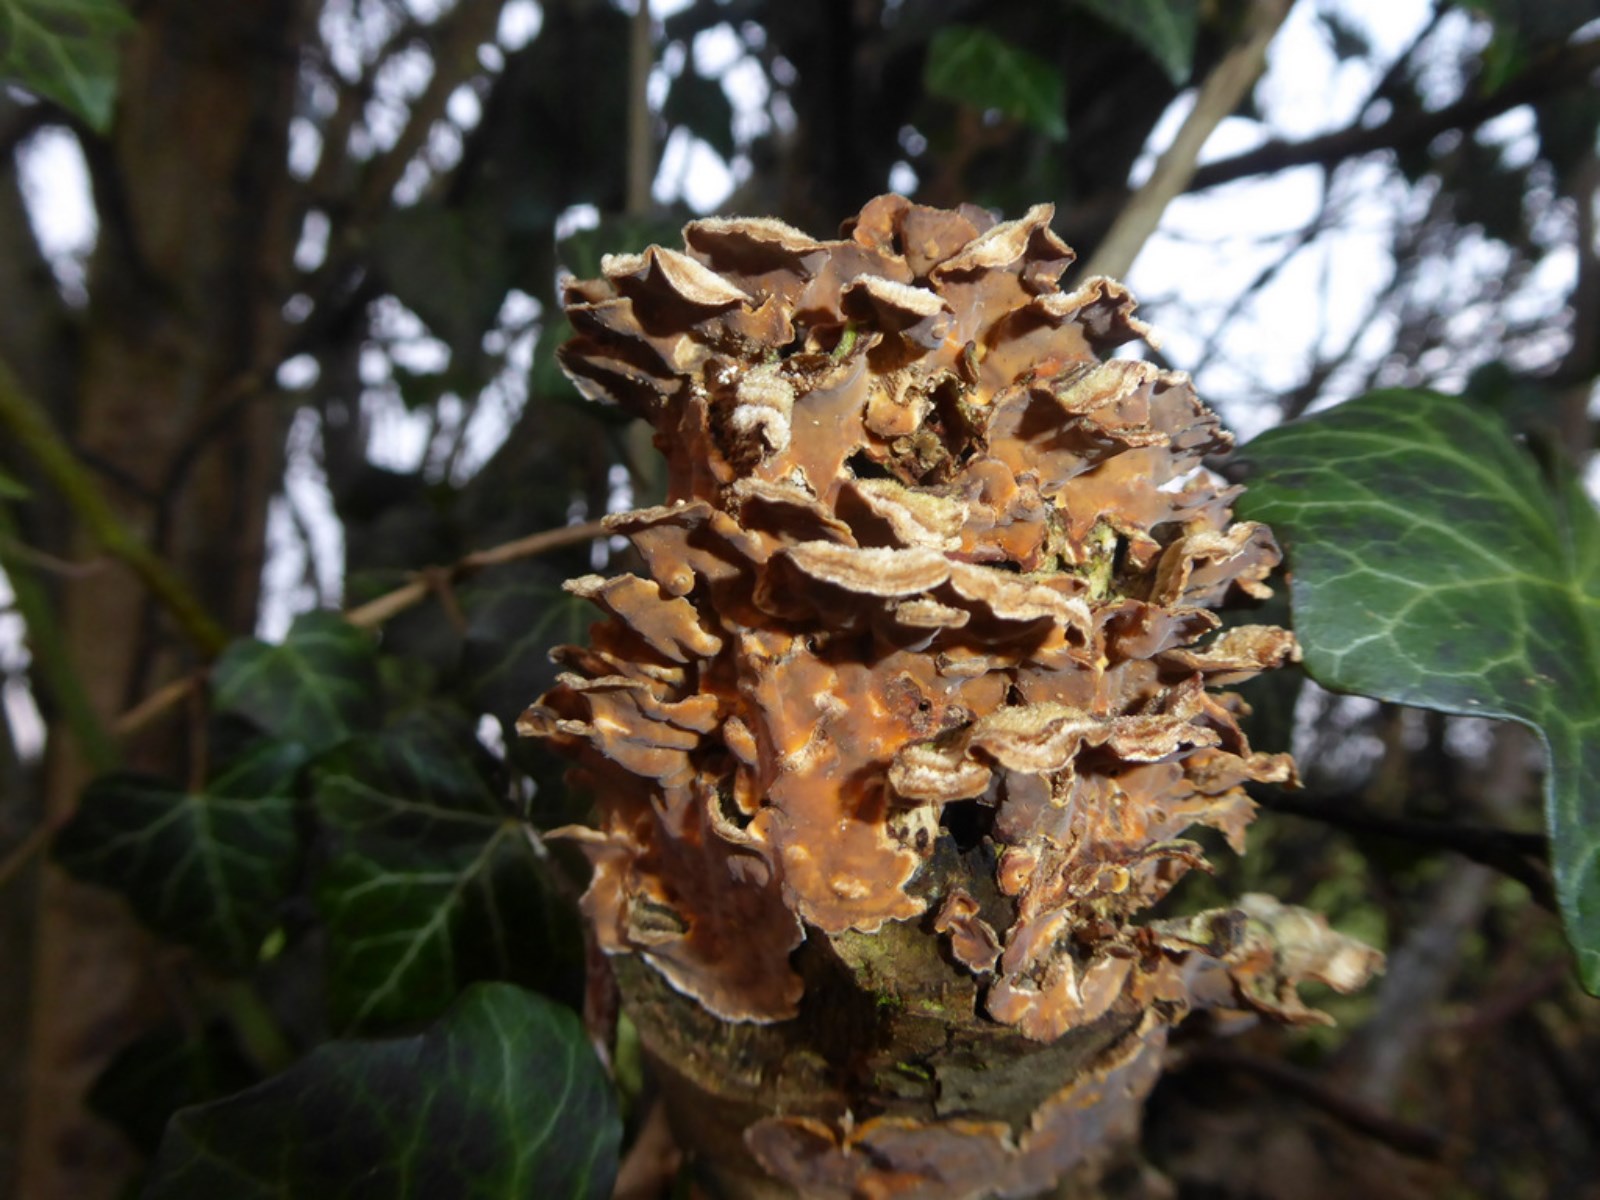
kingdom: Fungi
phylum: Basidiomycota
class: Agaricomycetes
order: Russulales
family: Stereaceae
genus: Stereum
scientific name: Stereum hirsutum
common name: håret lædersvamp
